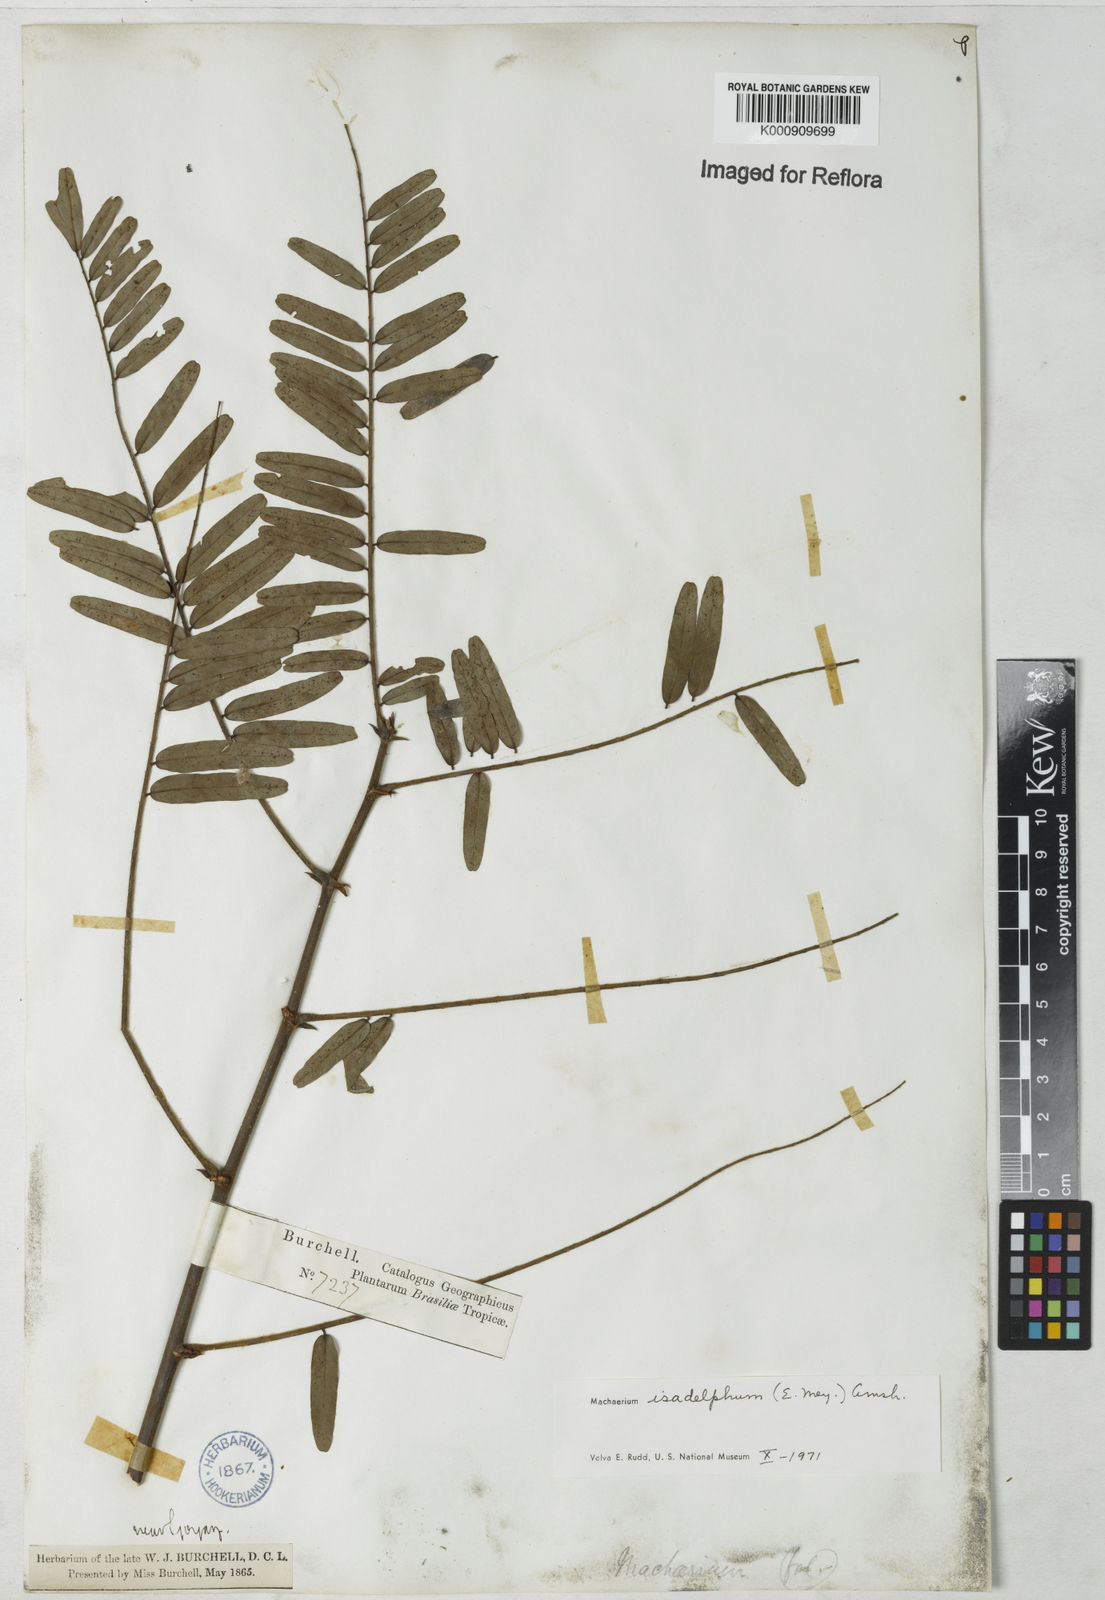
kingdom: Plantae
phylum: Tracheophyta
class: Magnoliopsida
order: Fabales
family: Fabaceae
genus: Machaerium
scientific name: Machaerium isadelphum
